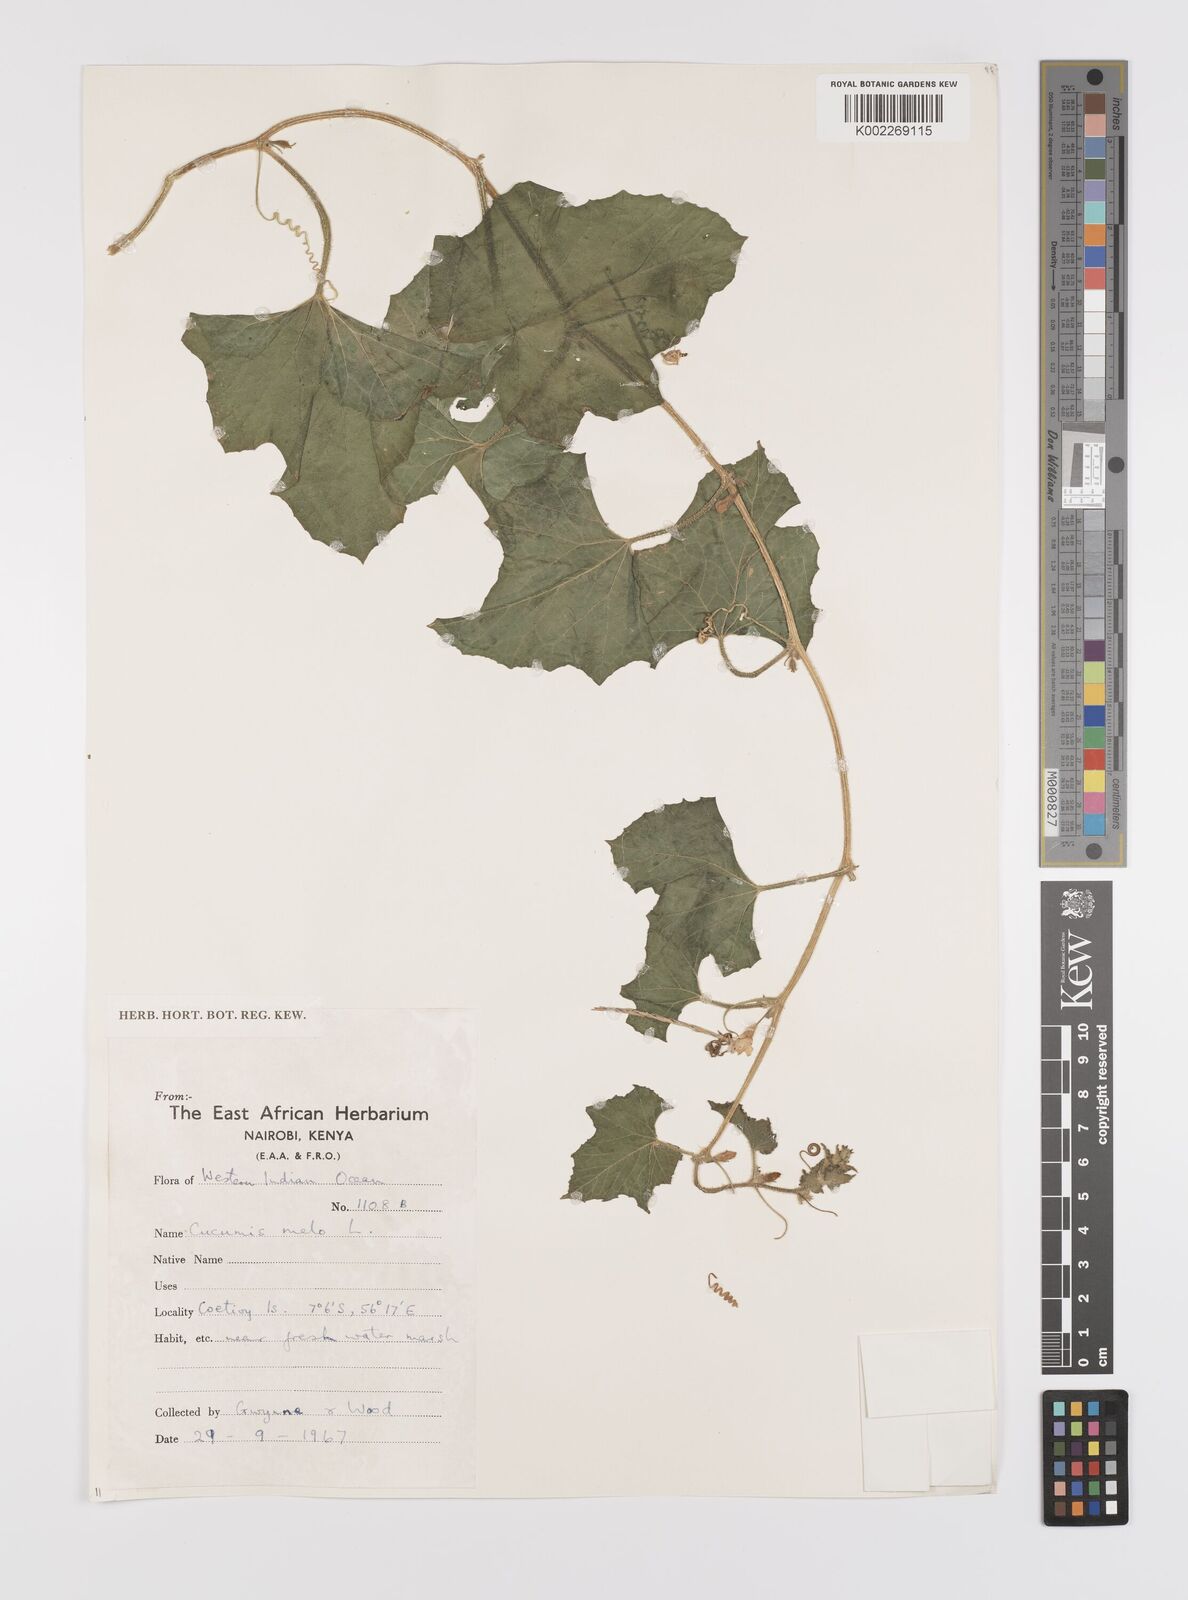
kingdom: Plantae
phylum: Tracheophyta
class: Magnoliopsida
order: Cucurbitales
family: Cucurbitaceae
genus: Cucumis
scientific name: Cucumis melo
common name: Melon
